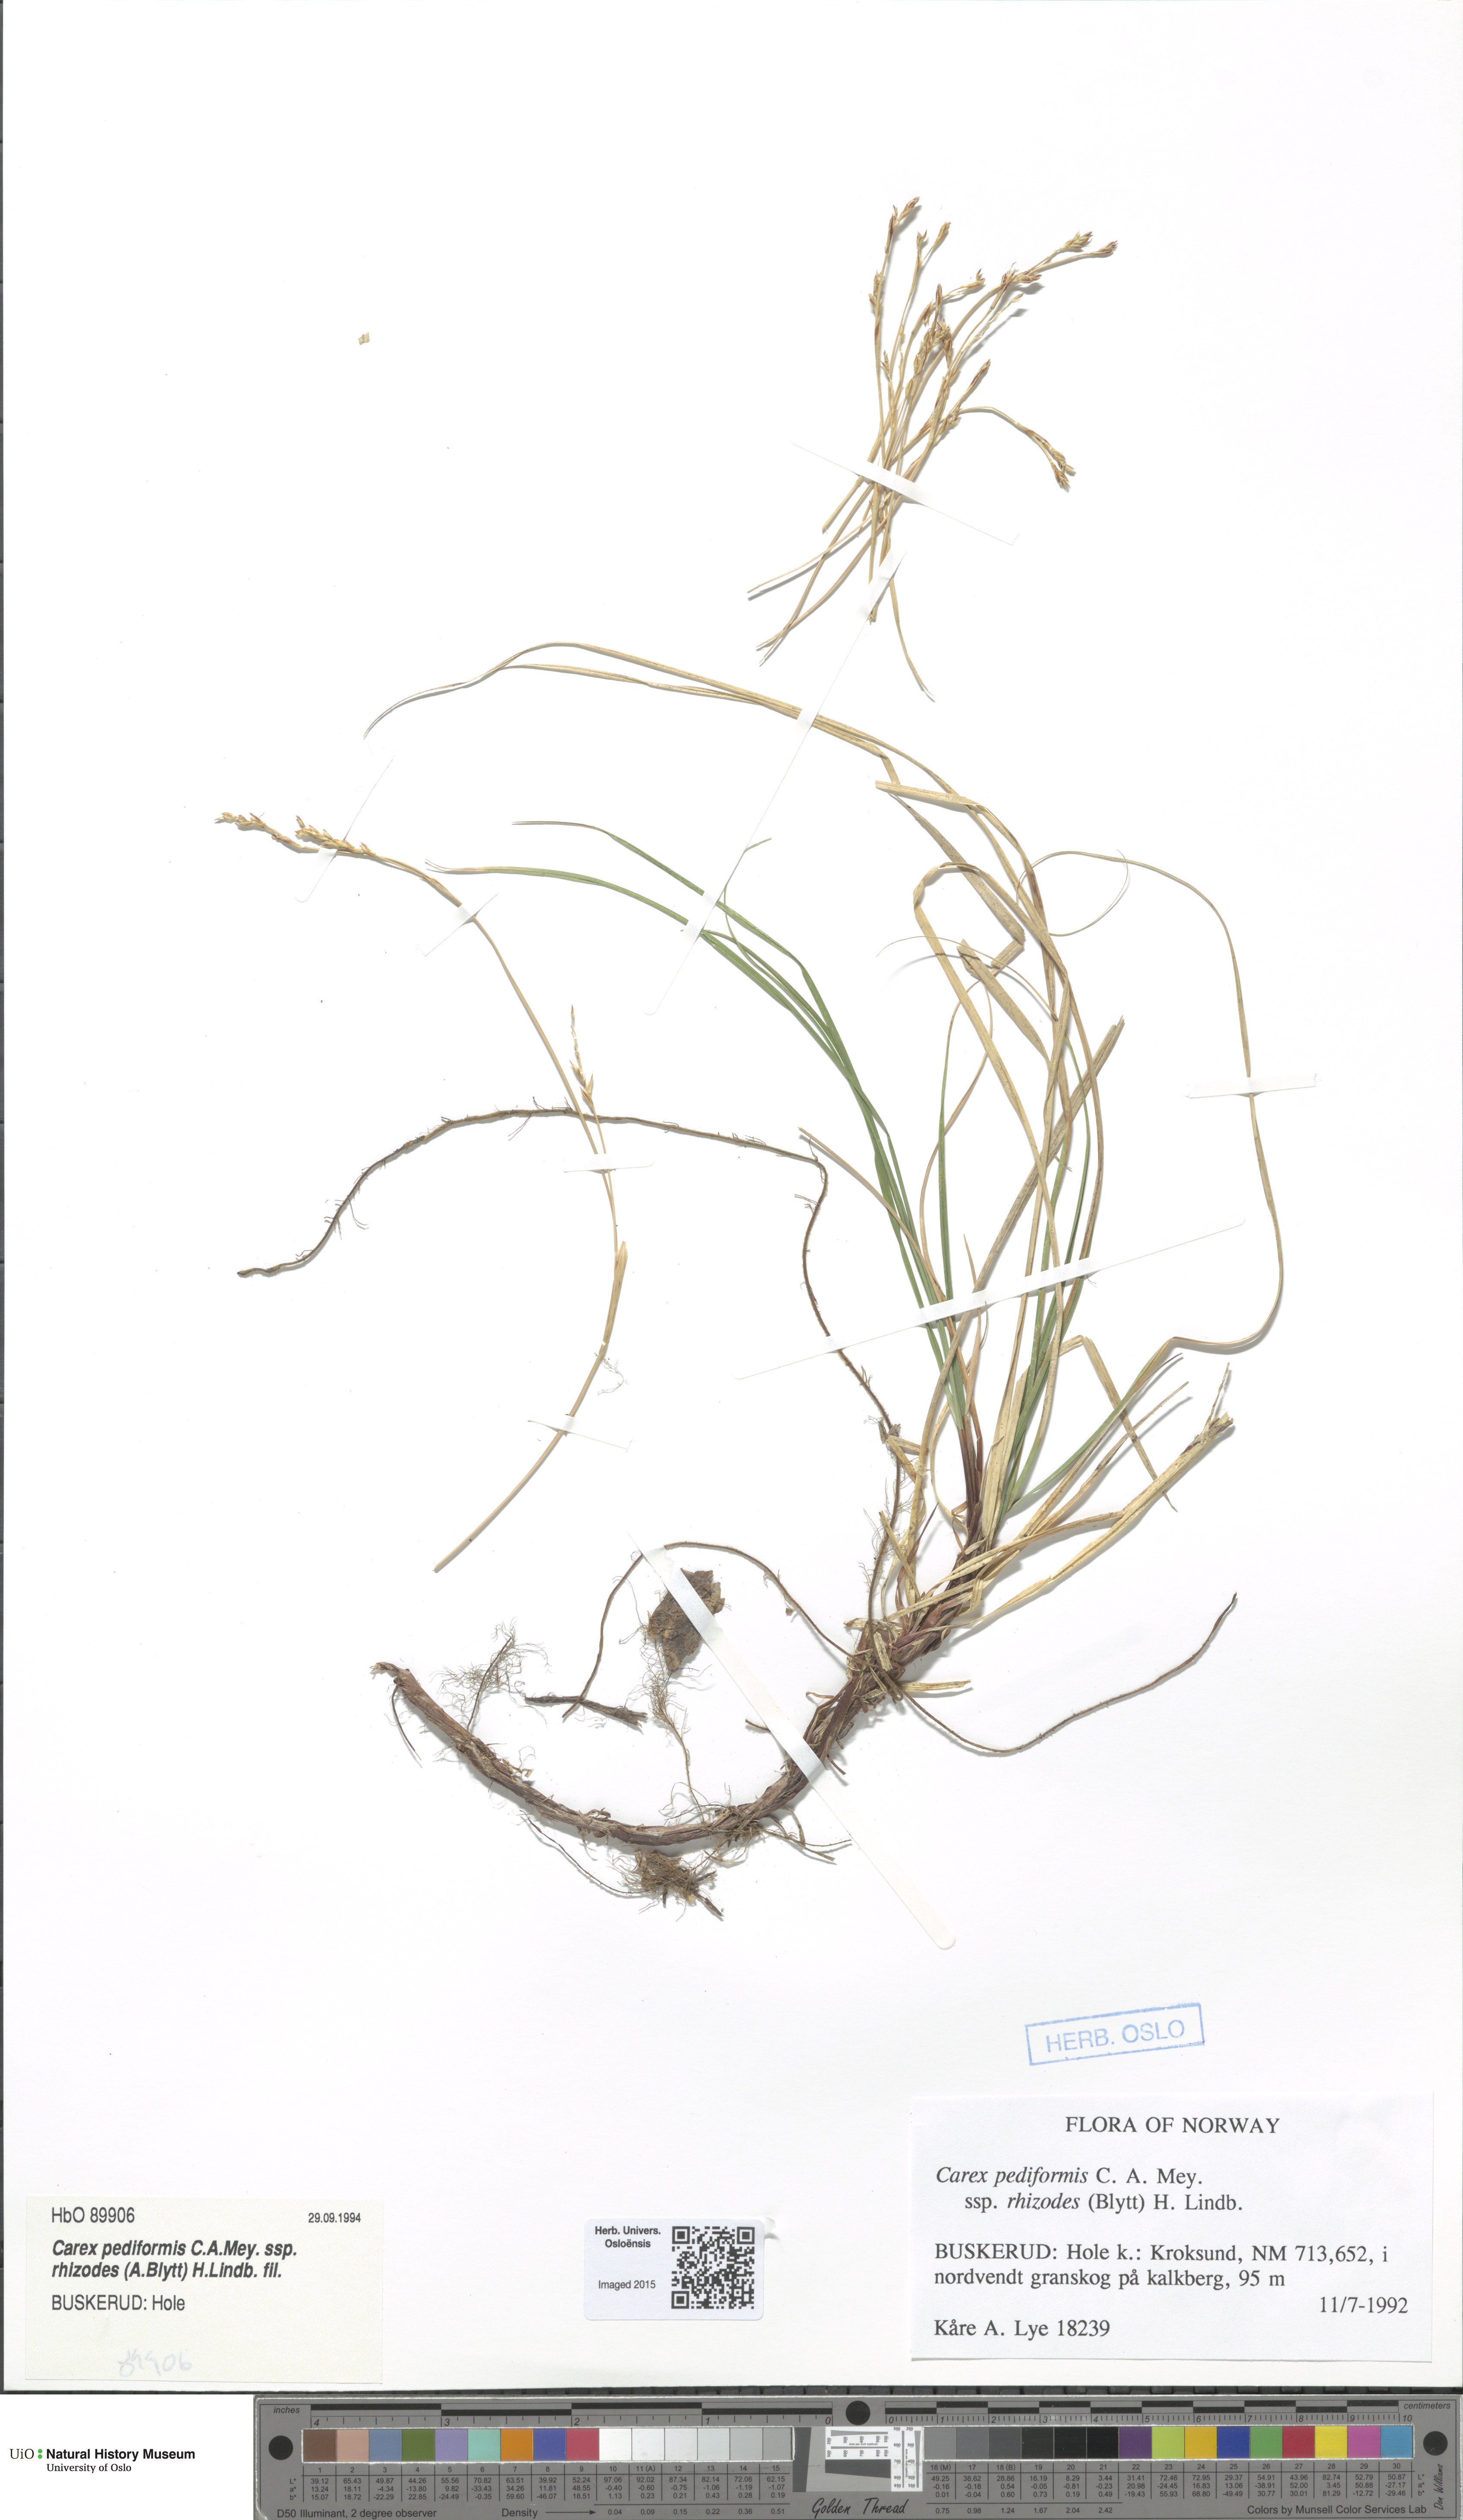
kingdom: Plantae
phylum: Tracheophyta
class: Liliopsida
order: Poales
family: Cyperaceae
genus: Carex
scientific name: Carex rhizina
